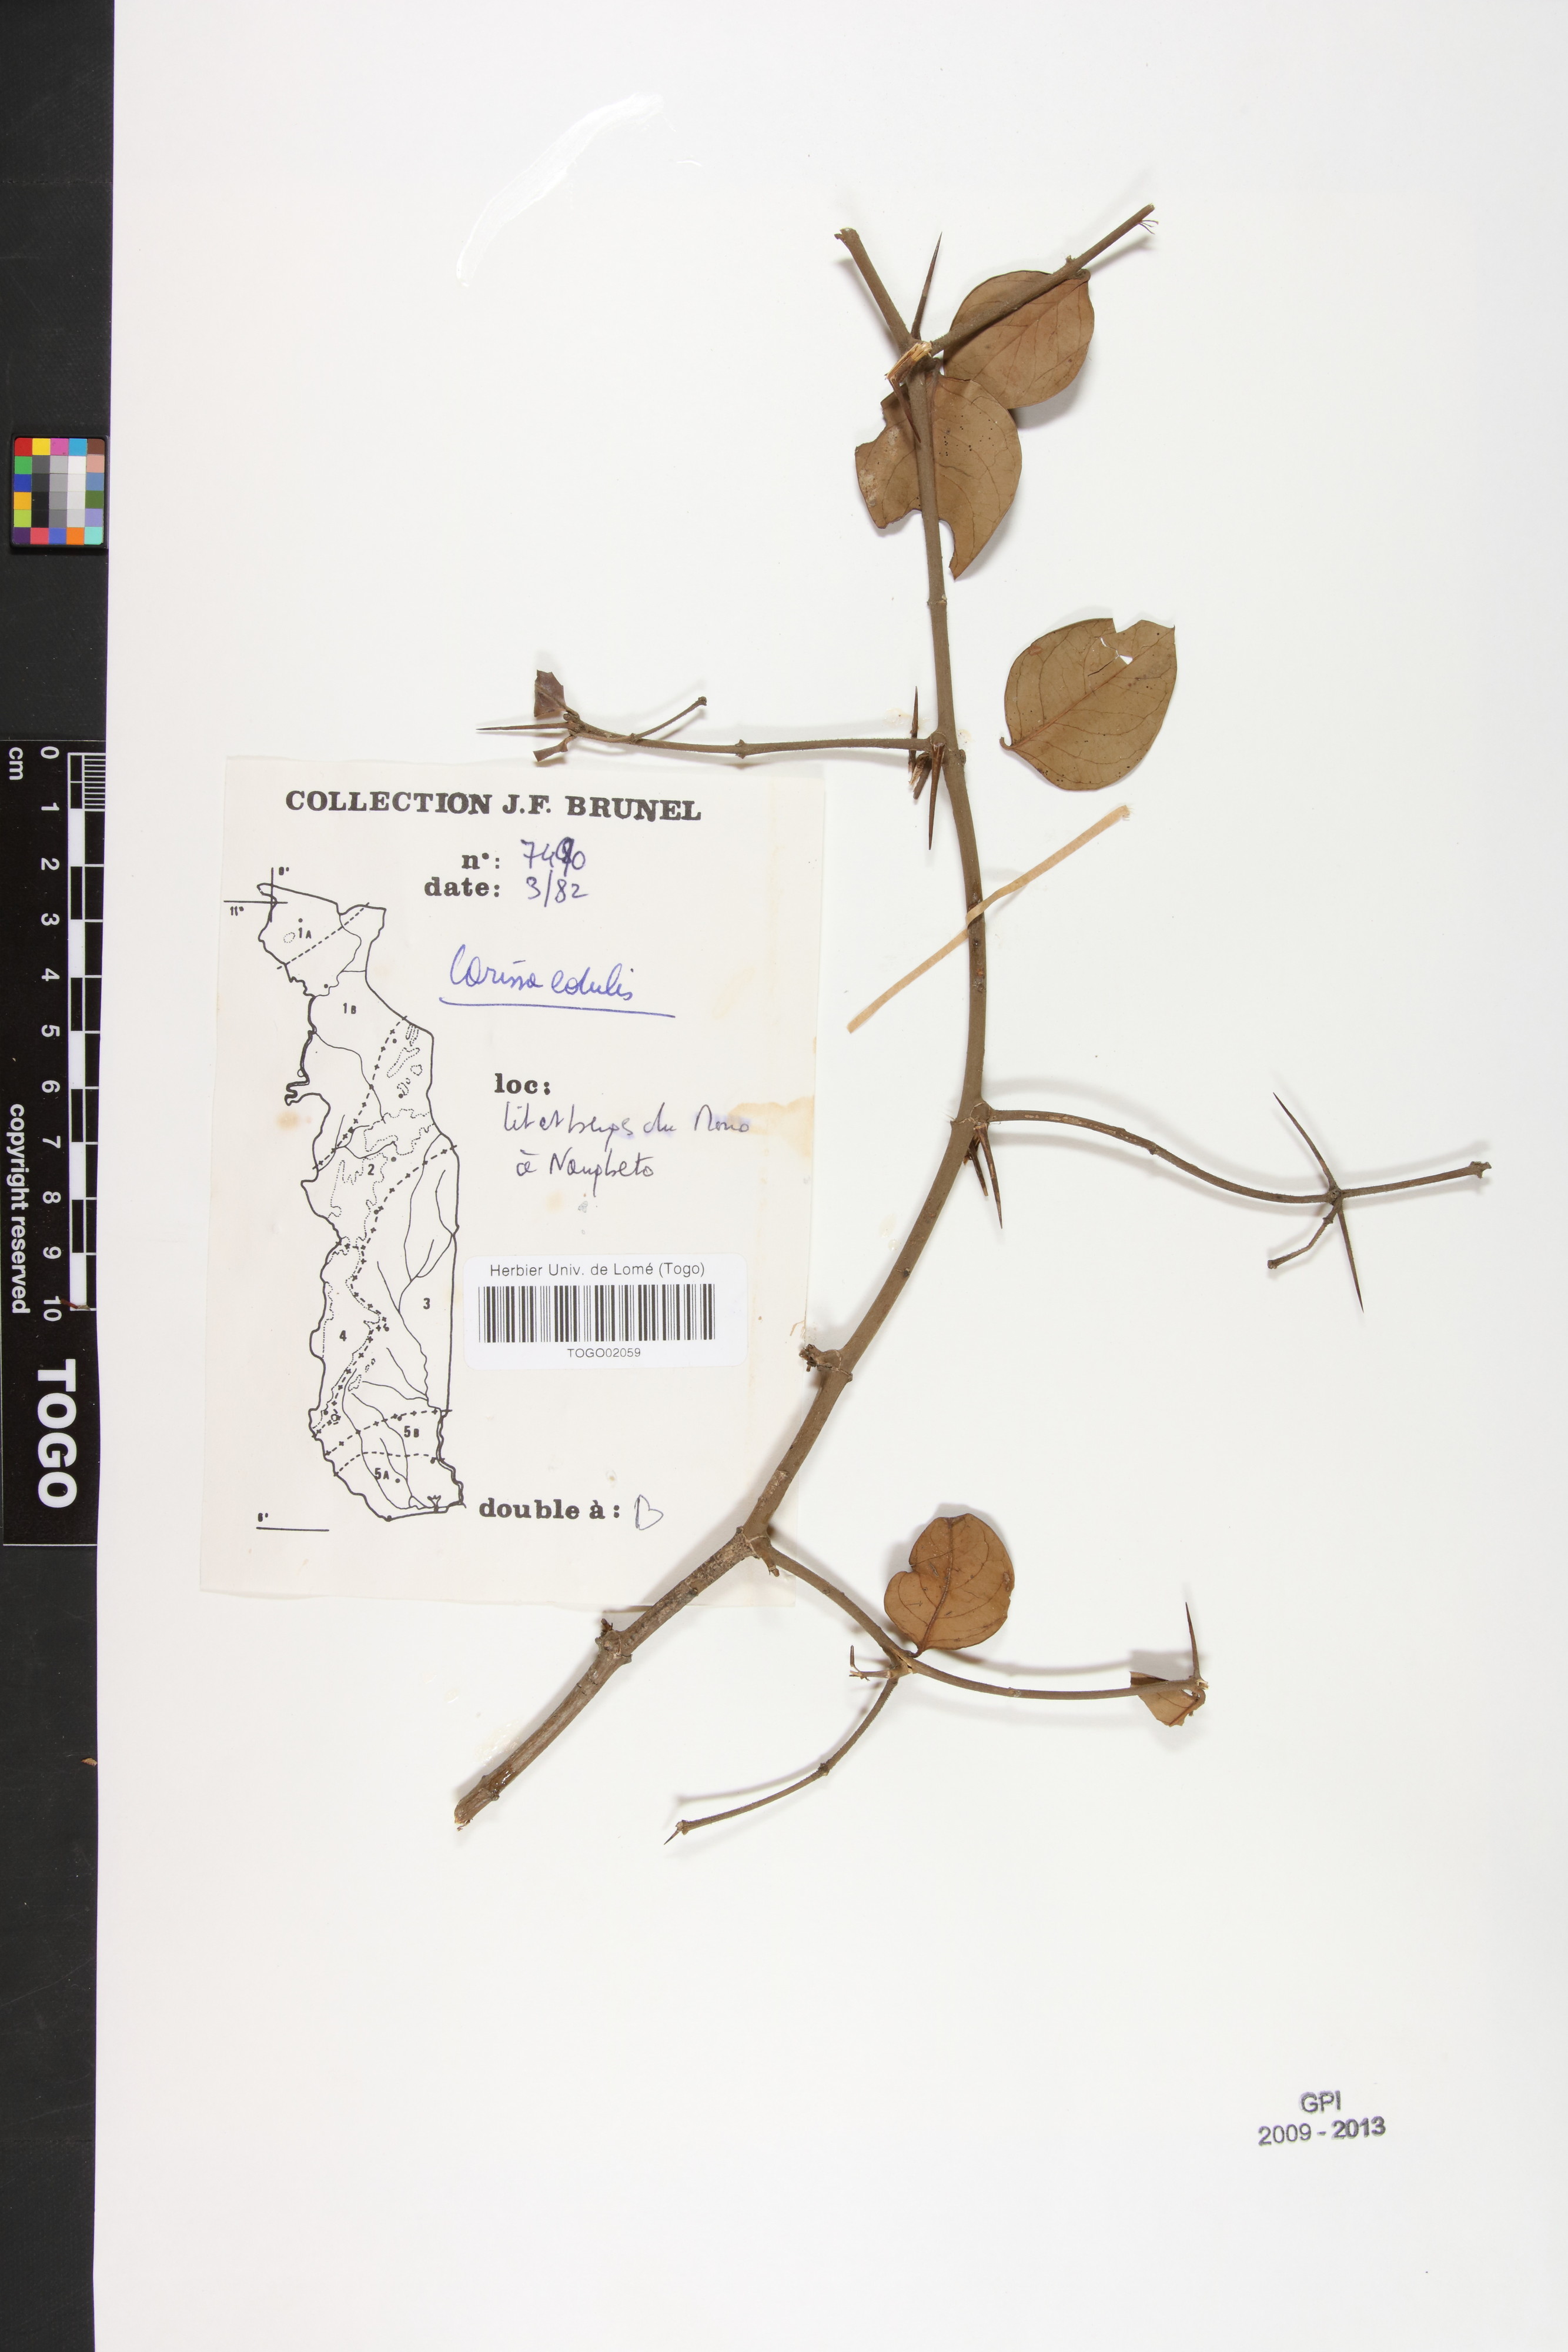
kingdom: Plantae
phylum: Tracheophyta
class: Magnoliopsida
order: Gentianales
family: Apocynaceae
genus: Carissa
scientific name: Carissa spinarum
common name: Egyptian carissa
